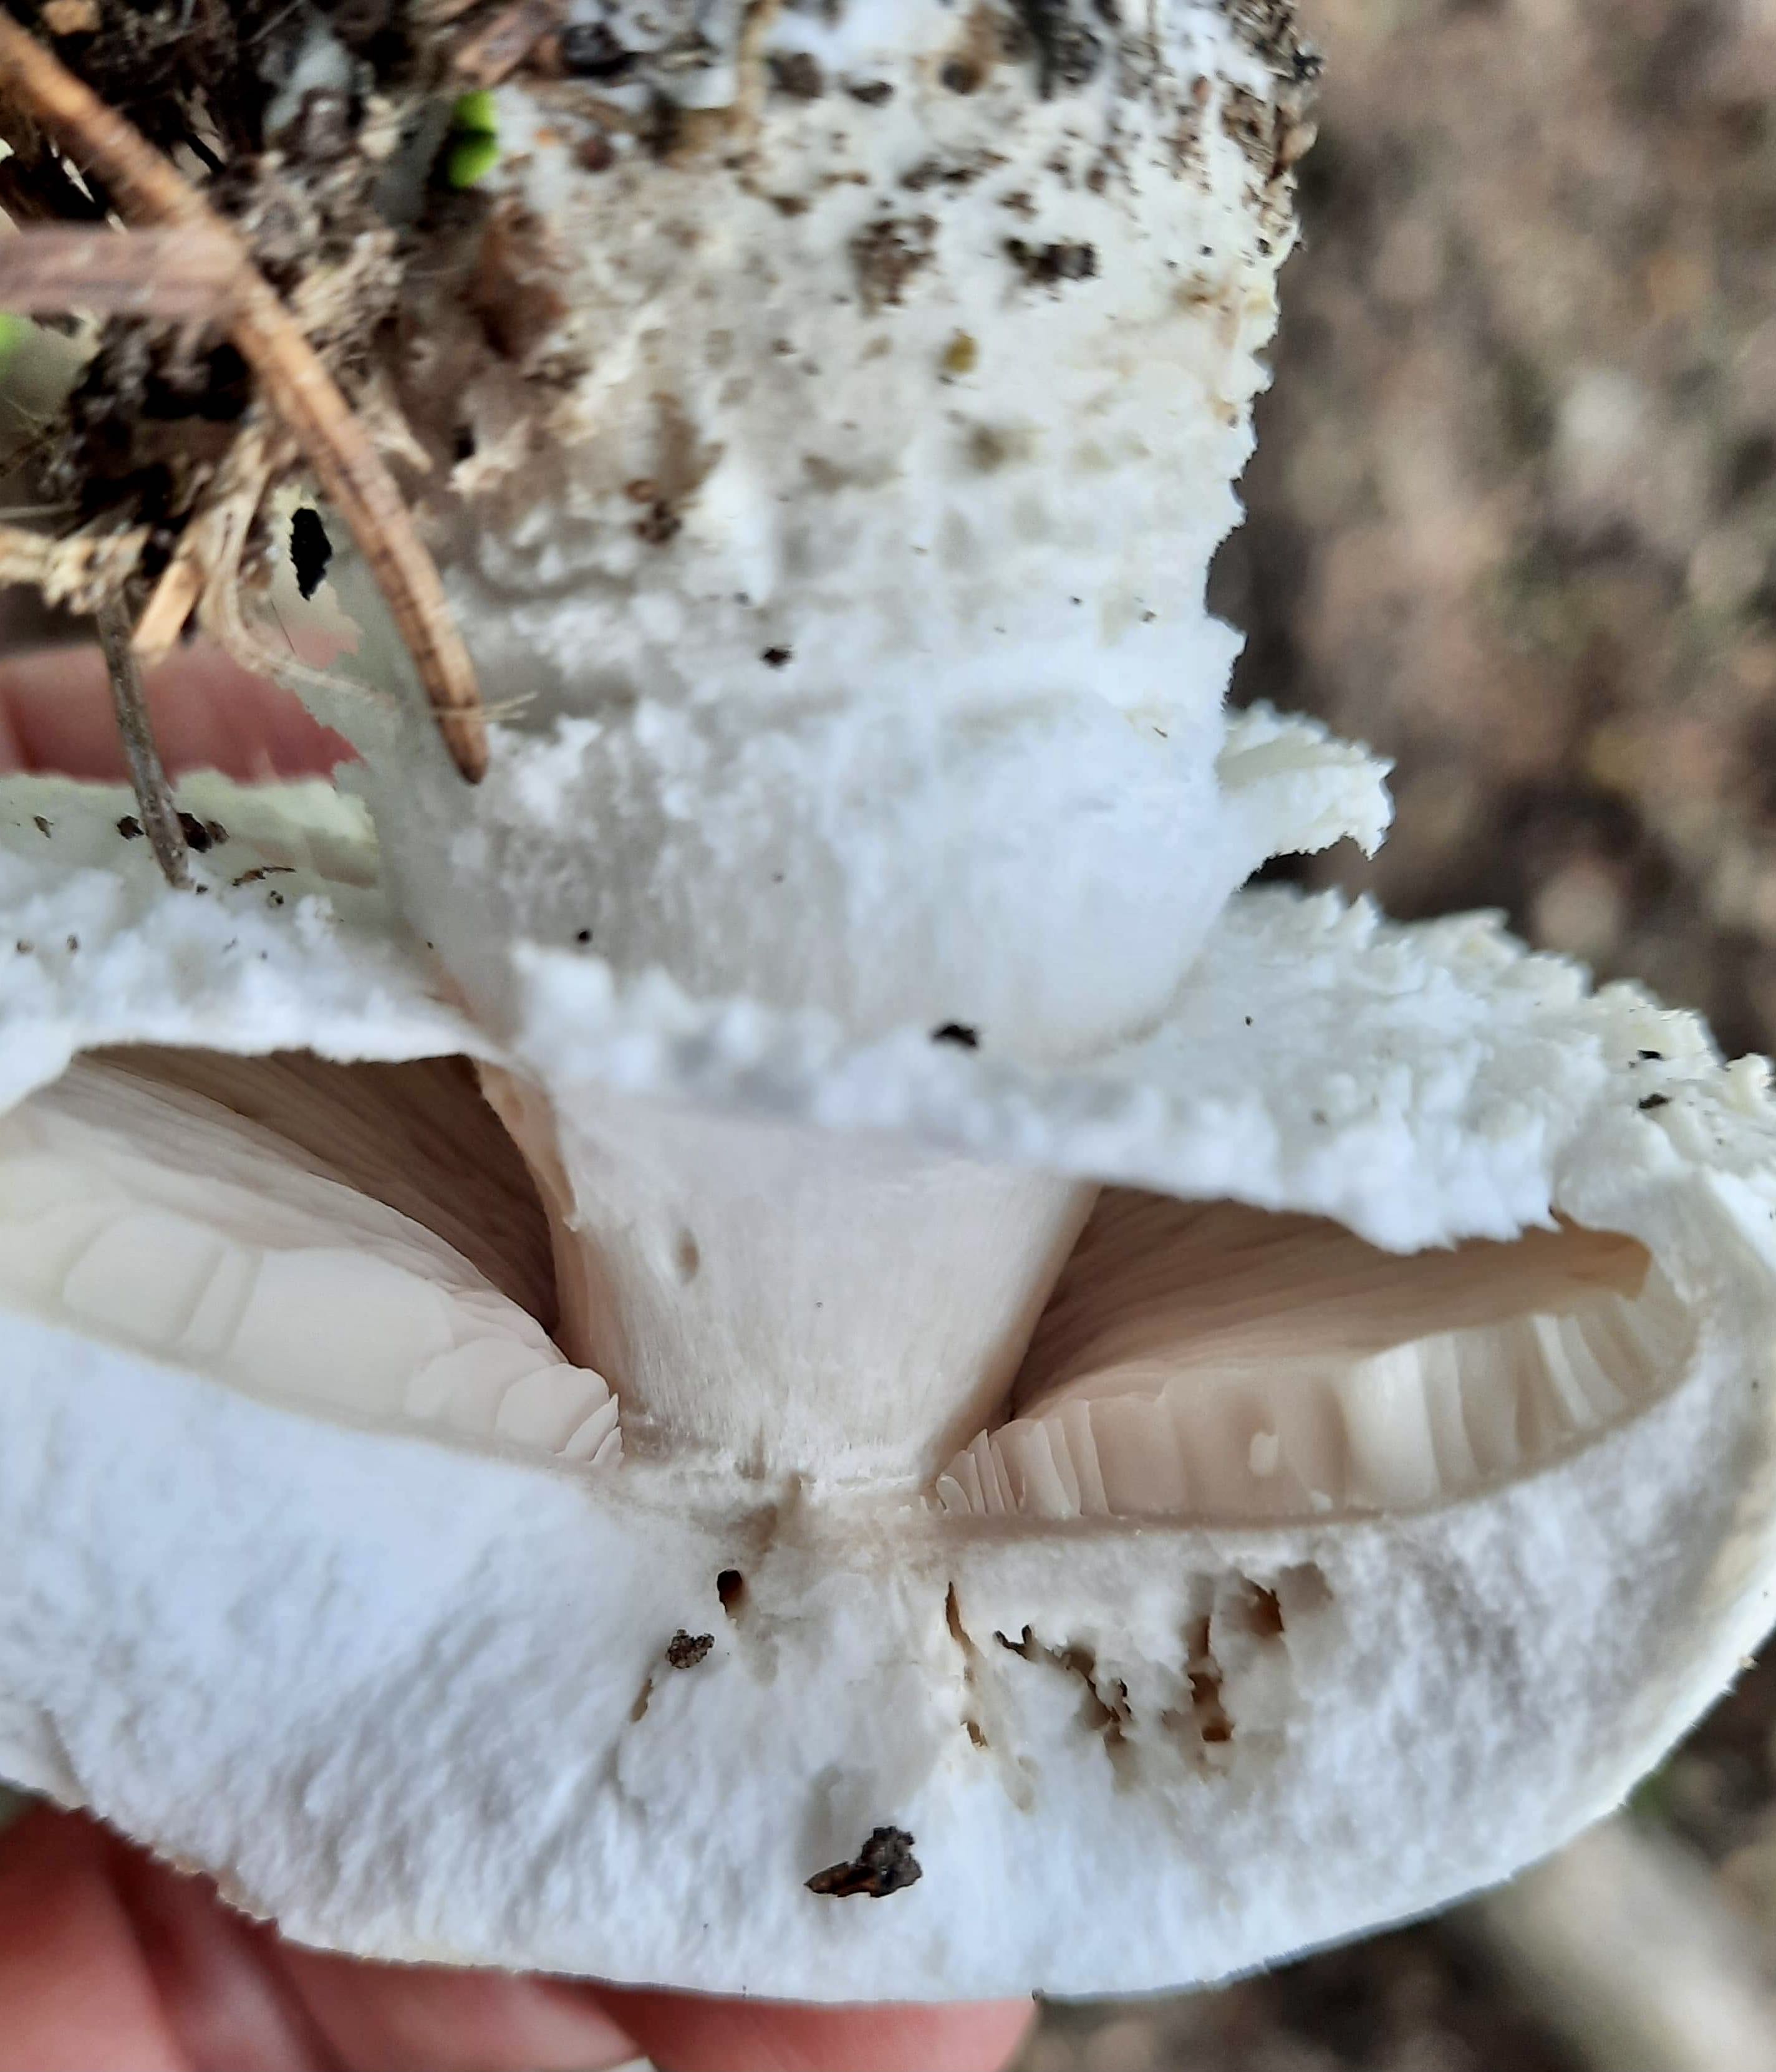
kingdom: Fungi
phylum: Basidiomycota
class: Agaricomycetes
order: Agaricales
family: Agaricaceae
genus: Agaricus
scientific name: Agaricus
